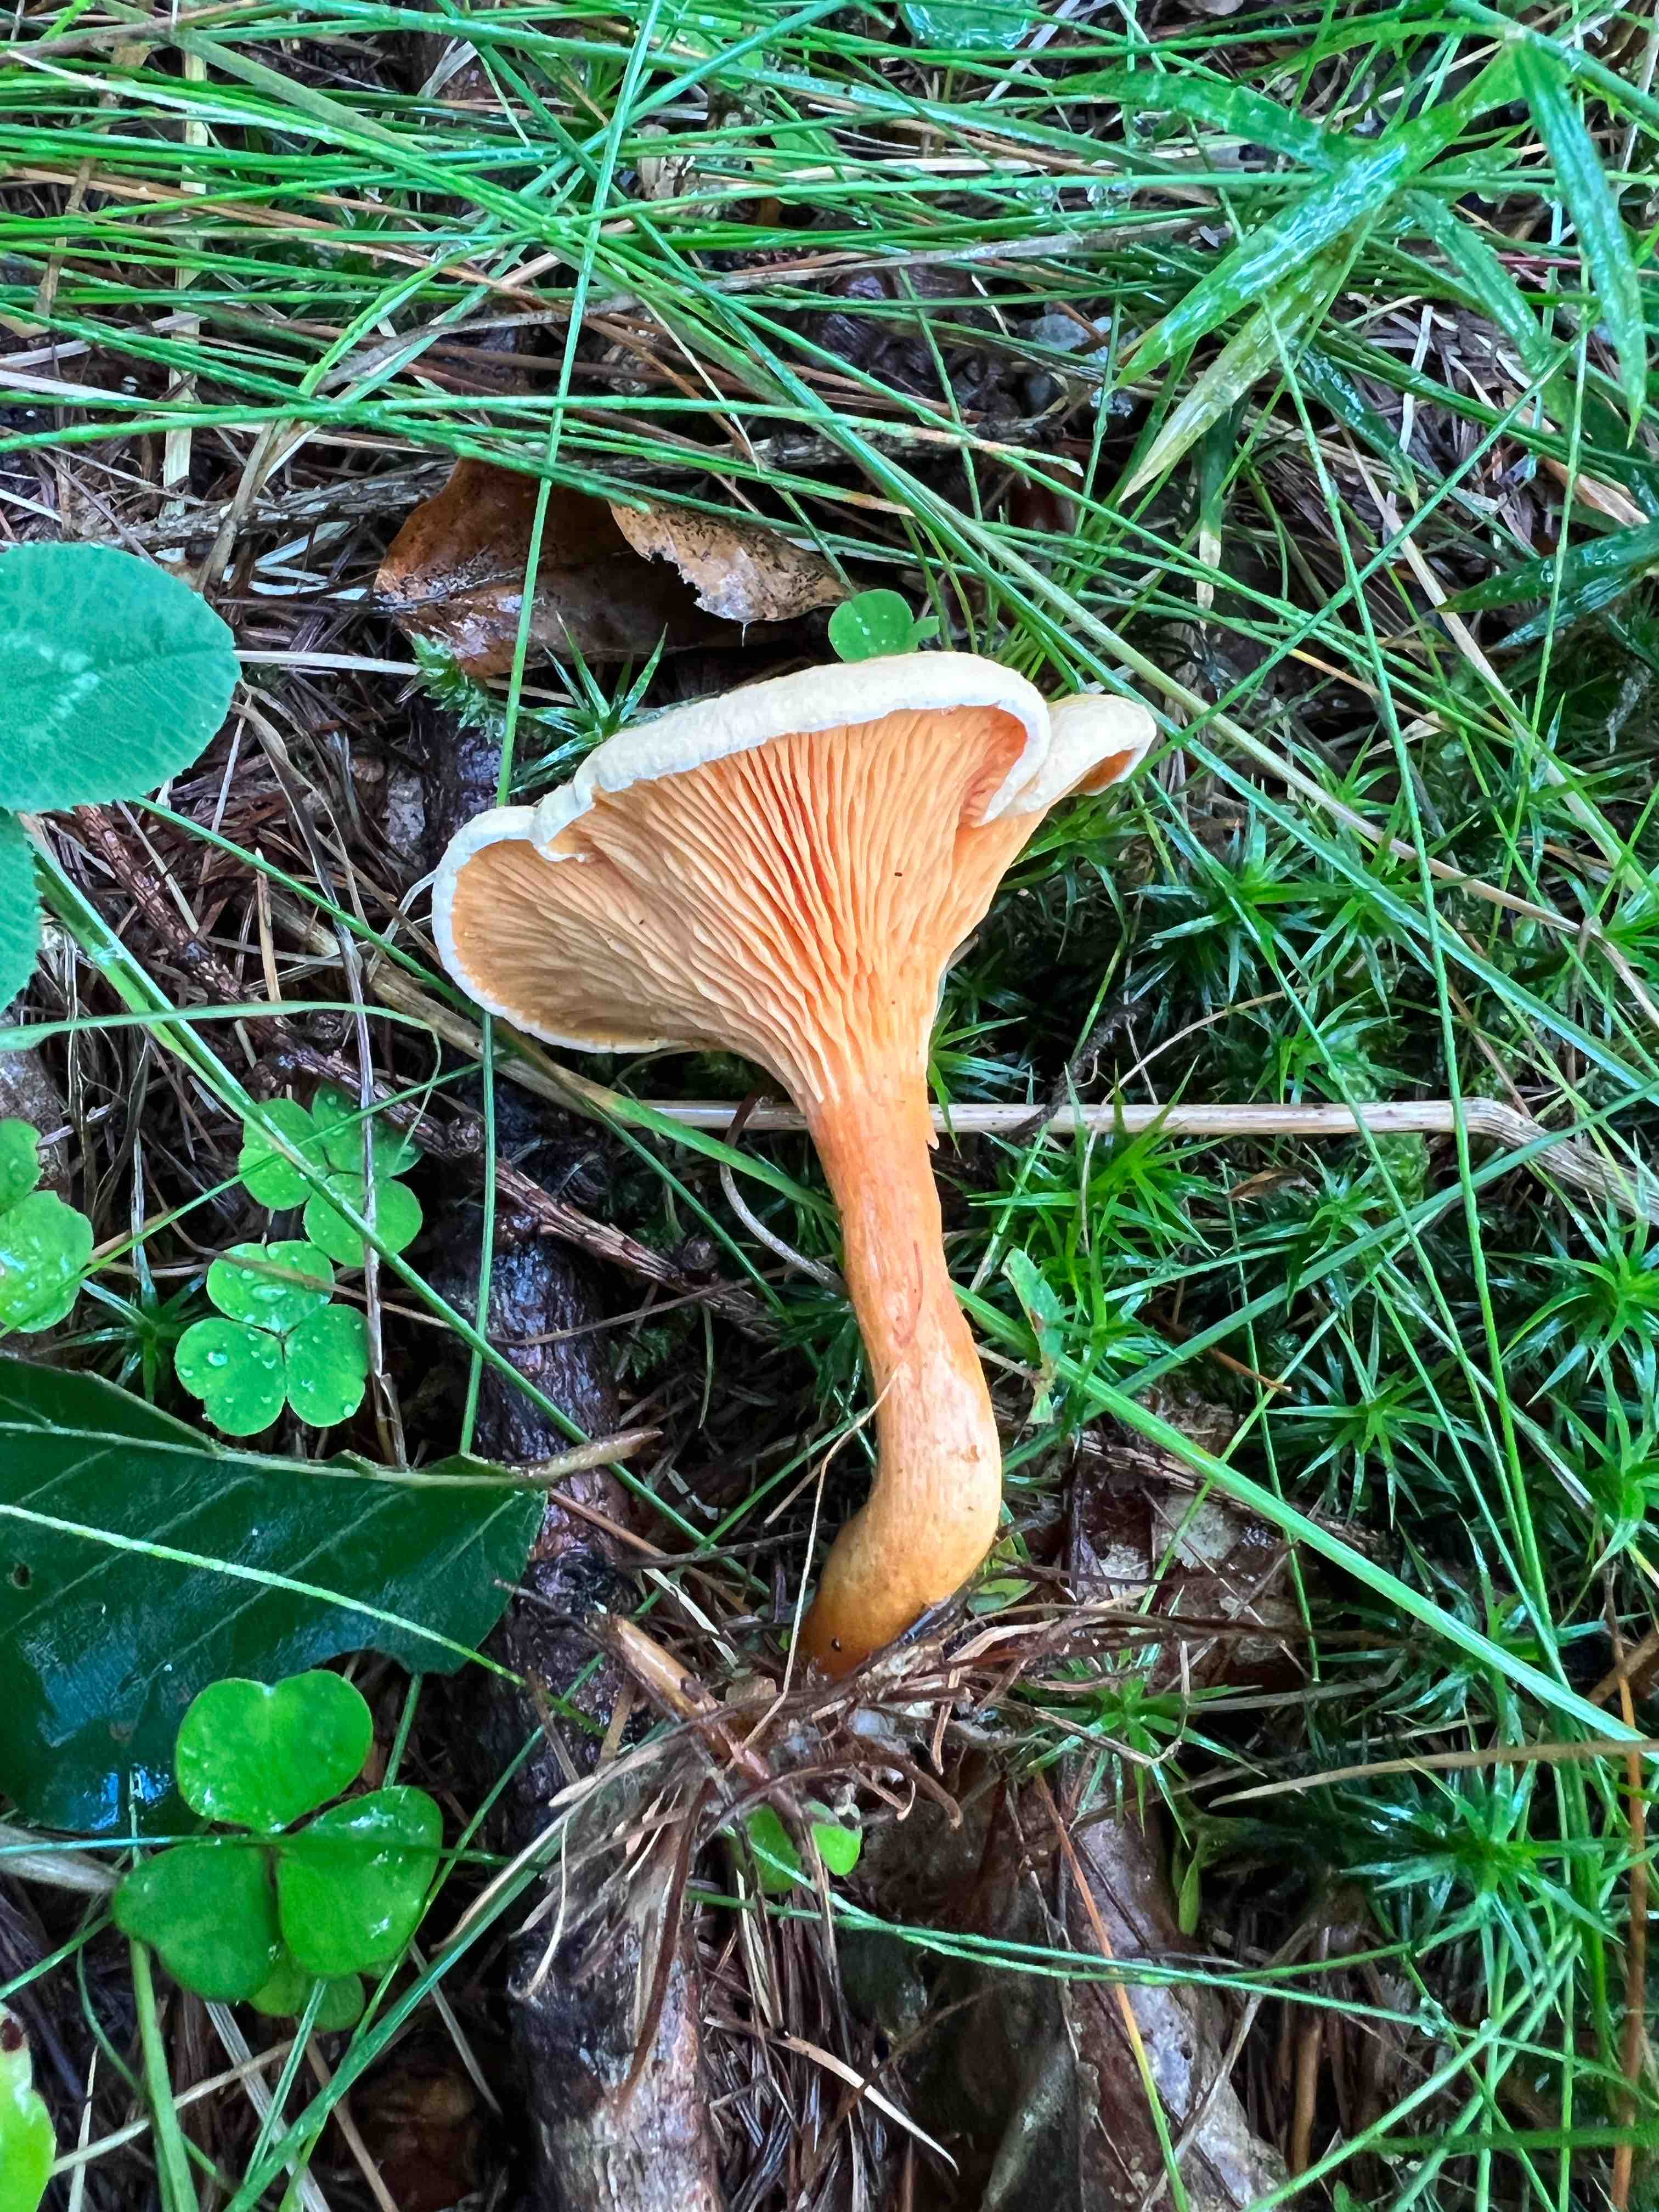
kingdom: Fungi
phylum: Basidiomycota
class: Agaricomycetes
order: Boletales
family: Hygrophoropsidaceae
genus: Hygrophoropsis
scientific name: Hygrophoropsis aurantiaca
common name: almindelig orangekantarel
